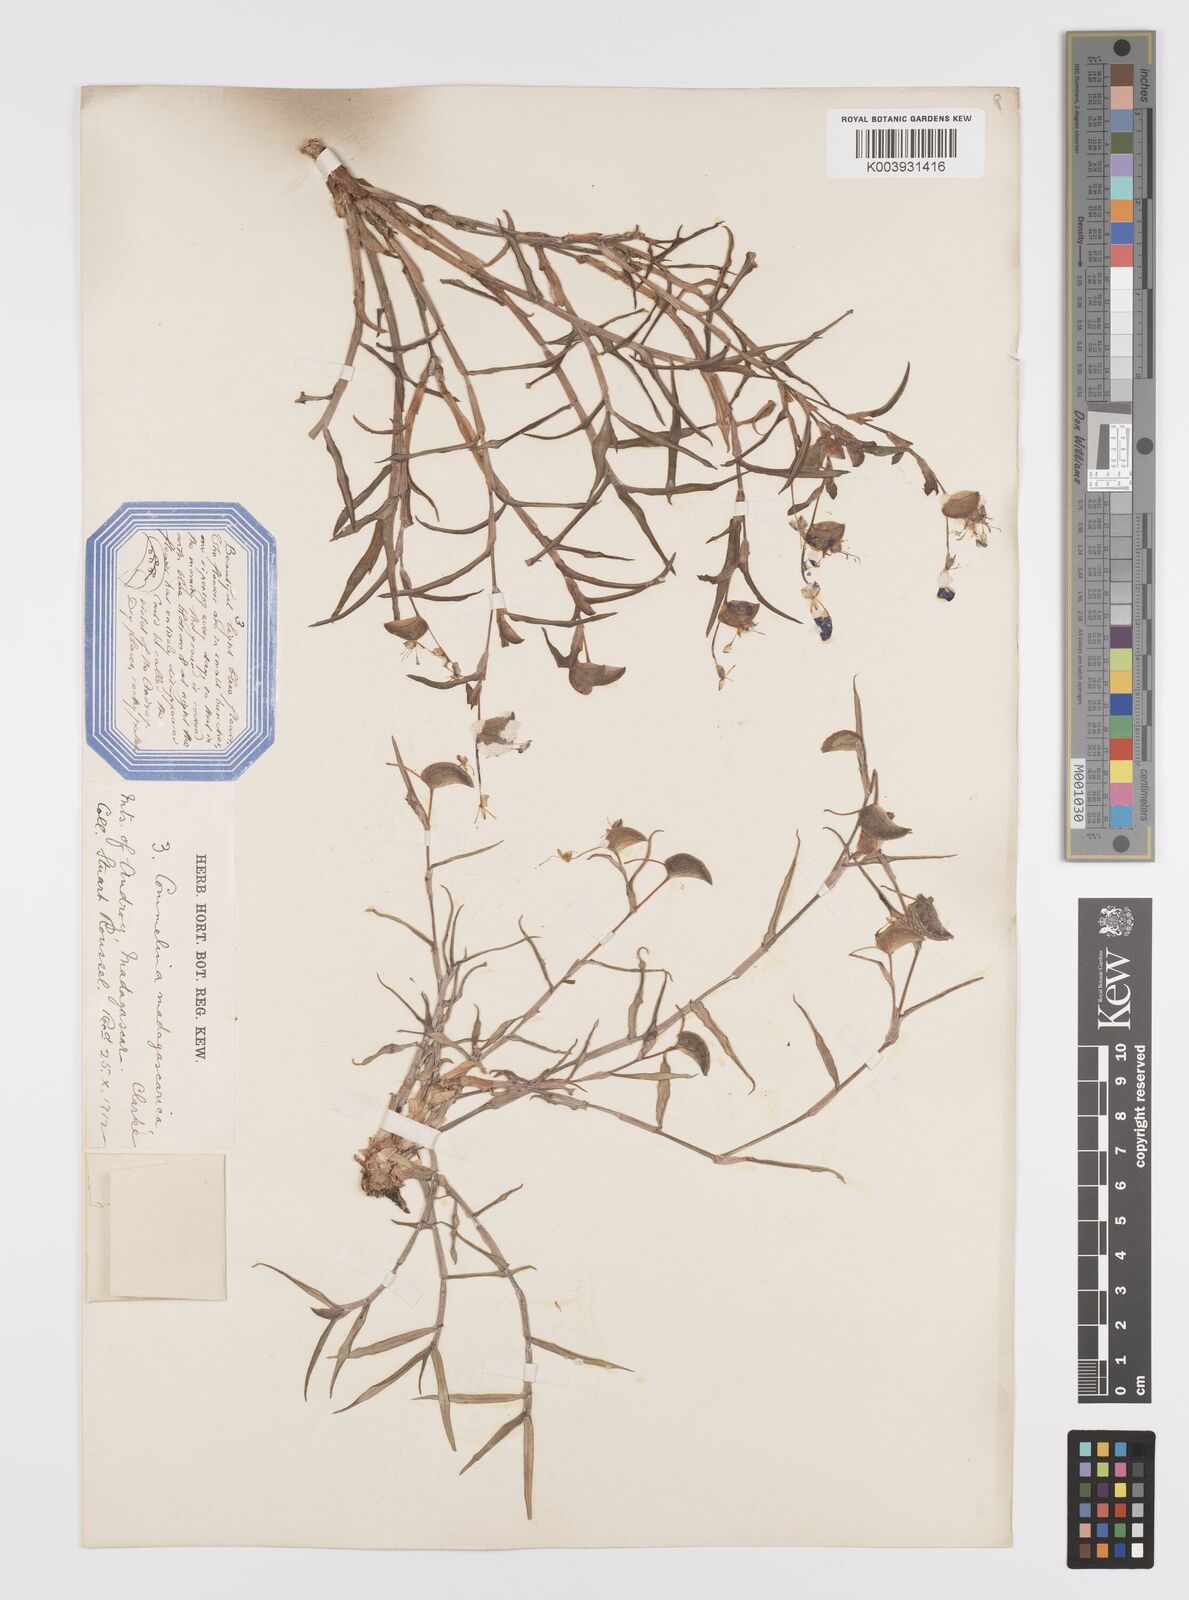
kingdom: Plantae
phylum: Tracheophyta
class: Liliopsida
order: Commelinales
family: Commelinaceae
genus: Commelina
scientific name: Commelina madagascarica
